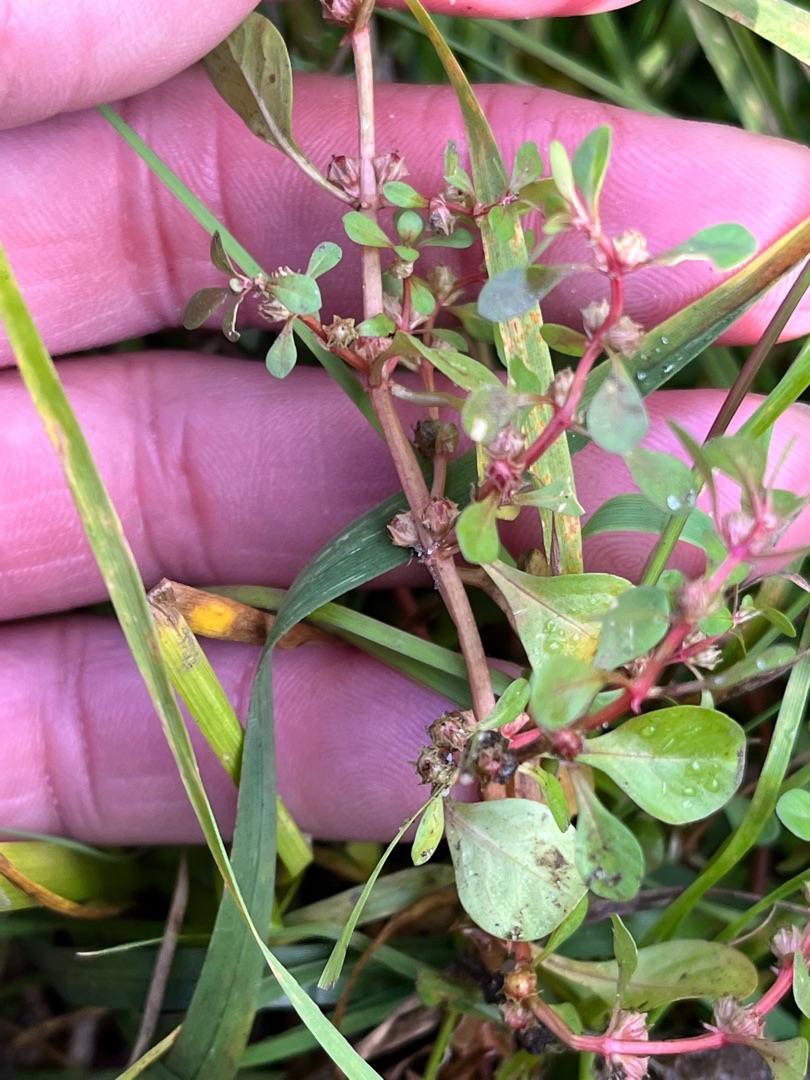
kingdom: Plantae
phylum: Tracheophyta
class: Magnoliopsida
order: Myrtales
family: Lythraceae
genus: Lythrum
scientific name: Lythrum portula
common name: Vandportulak
